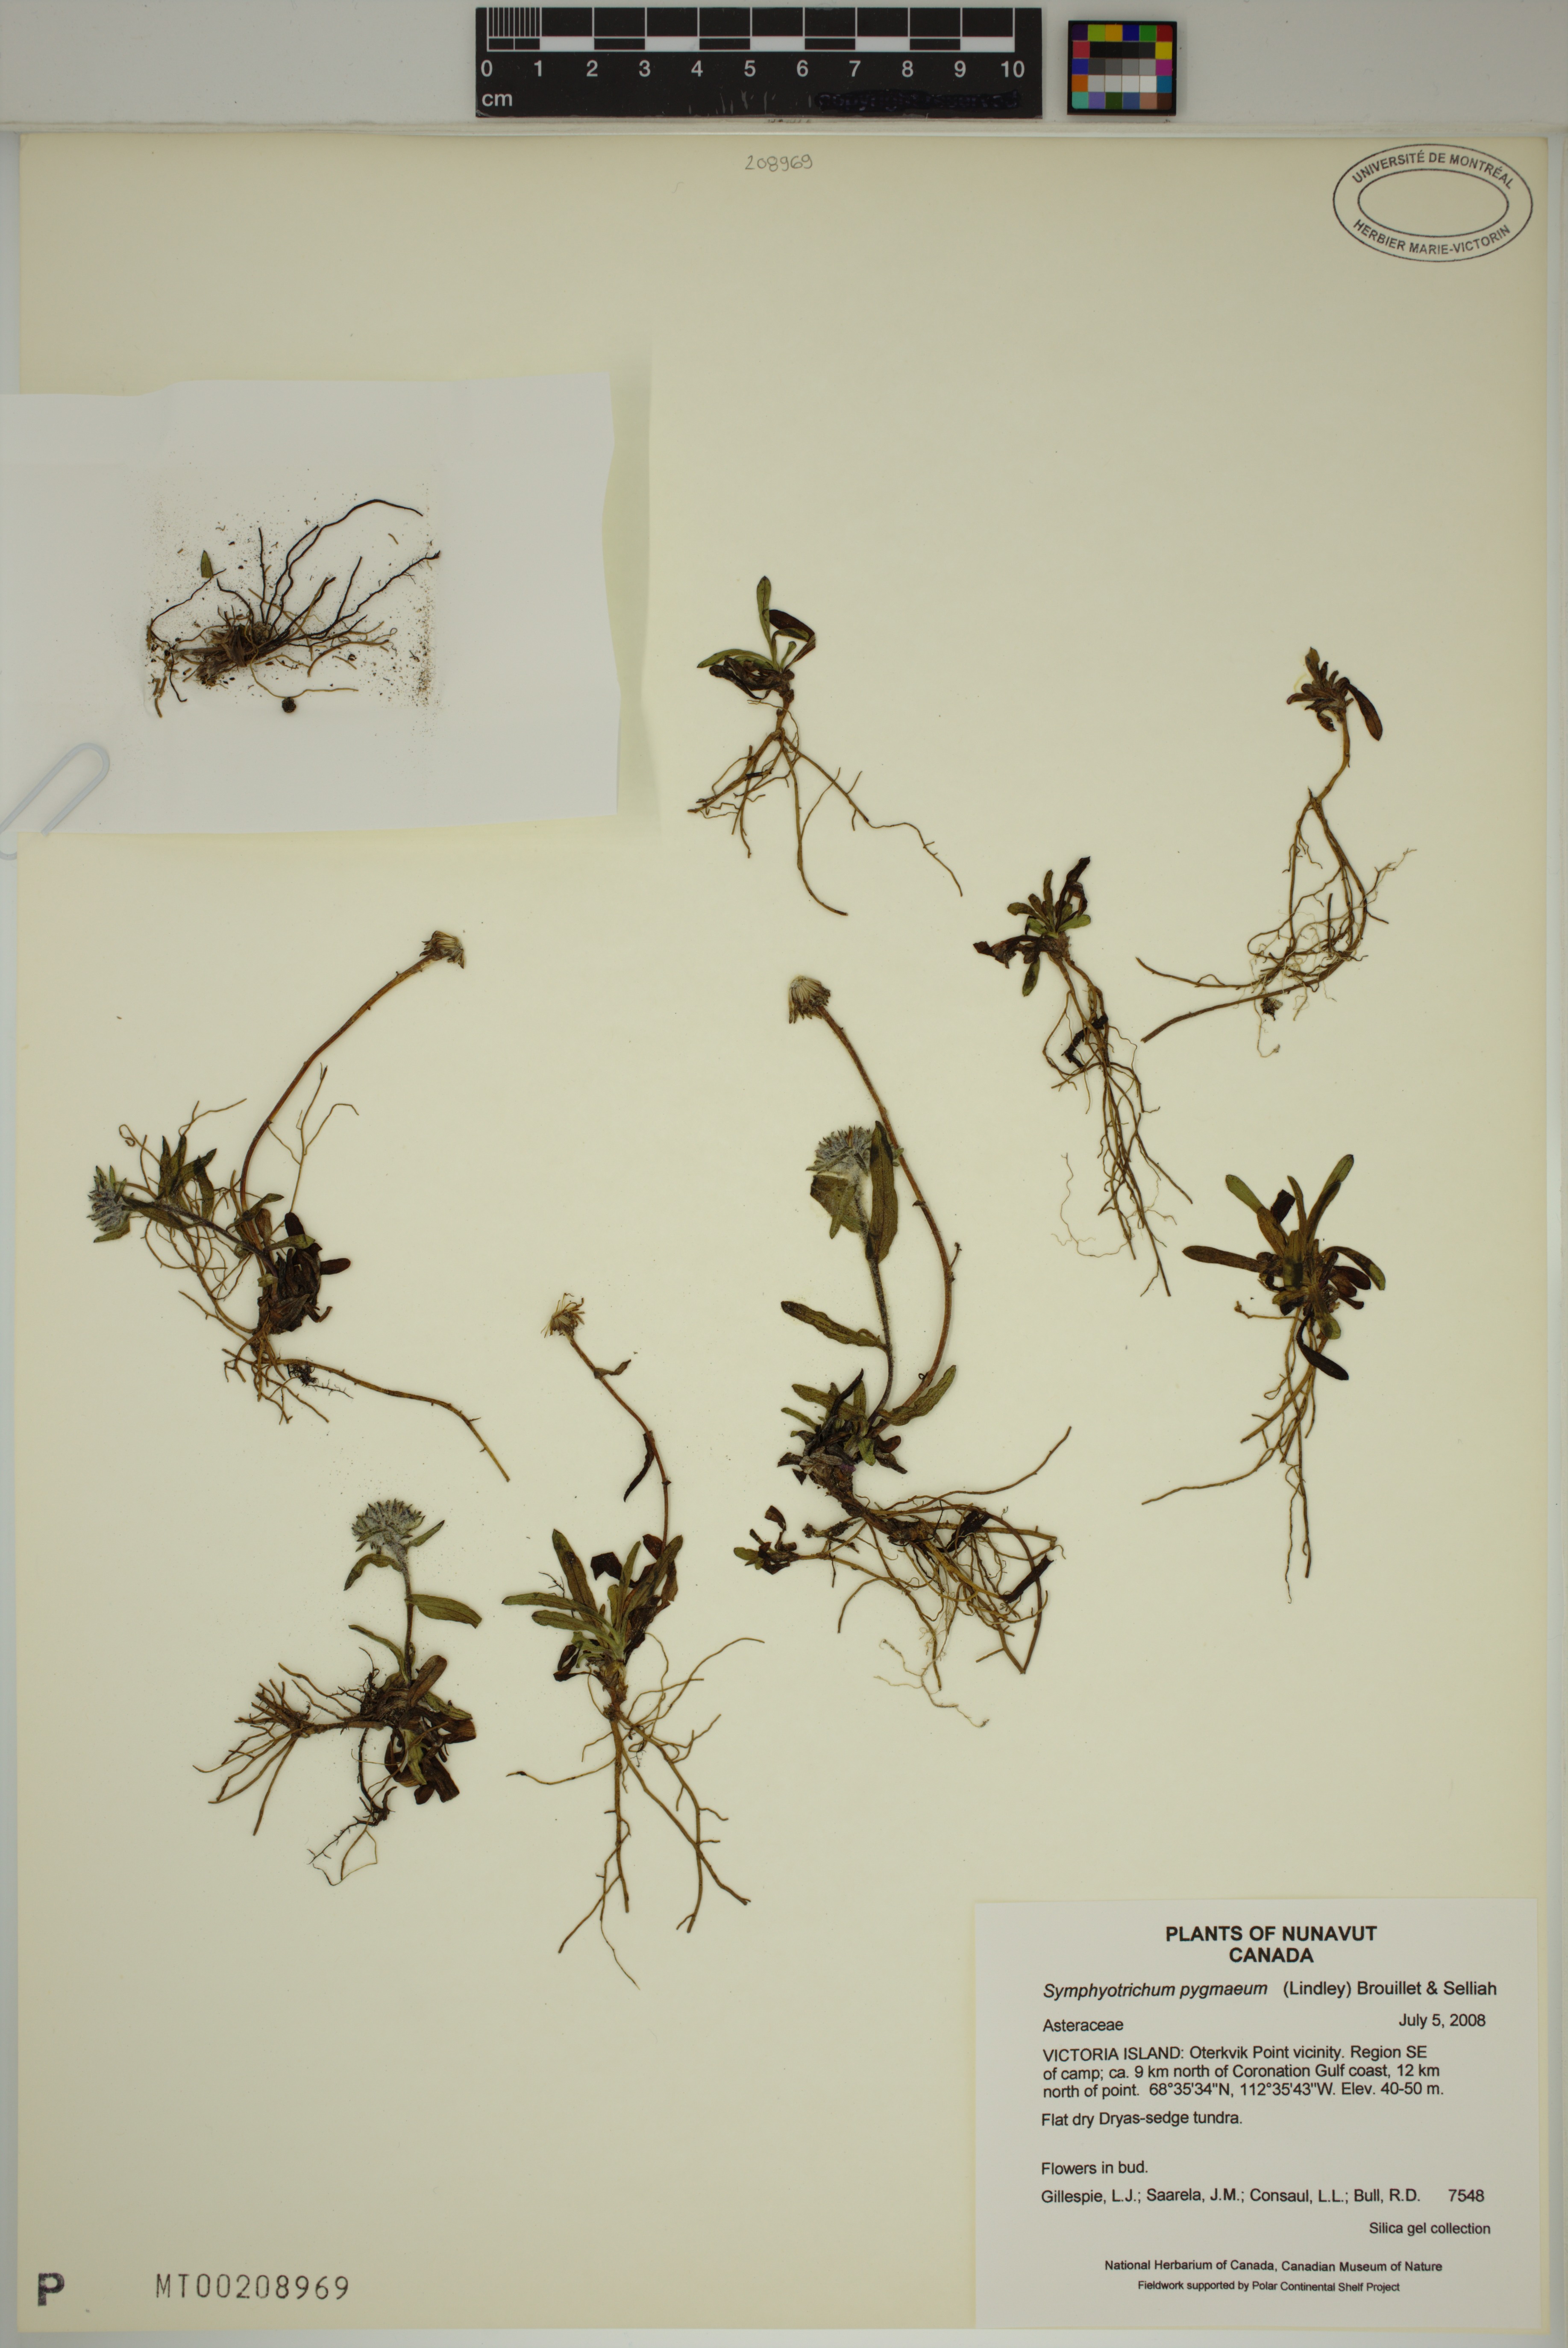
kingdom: Plantae
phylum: Tracheophyta
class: Magnoliopsida
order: Asterales
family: Asteraceae
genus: Symphyotrichum
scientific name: Symphyotrichum pygmaeum
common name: Pygmy aster
